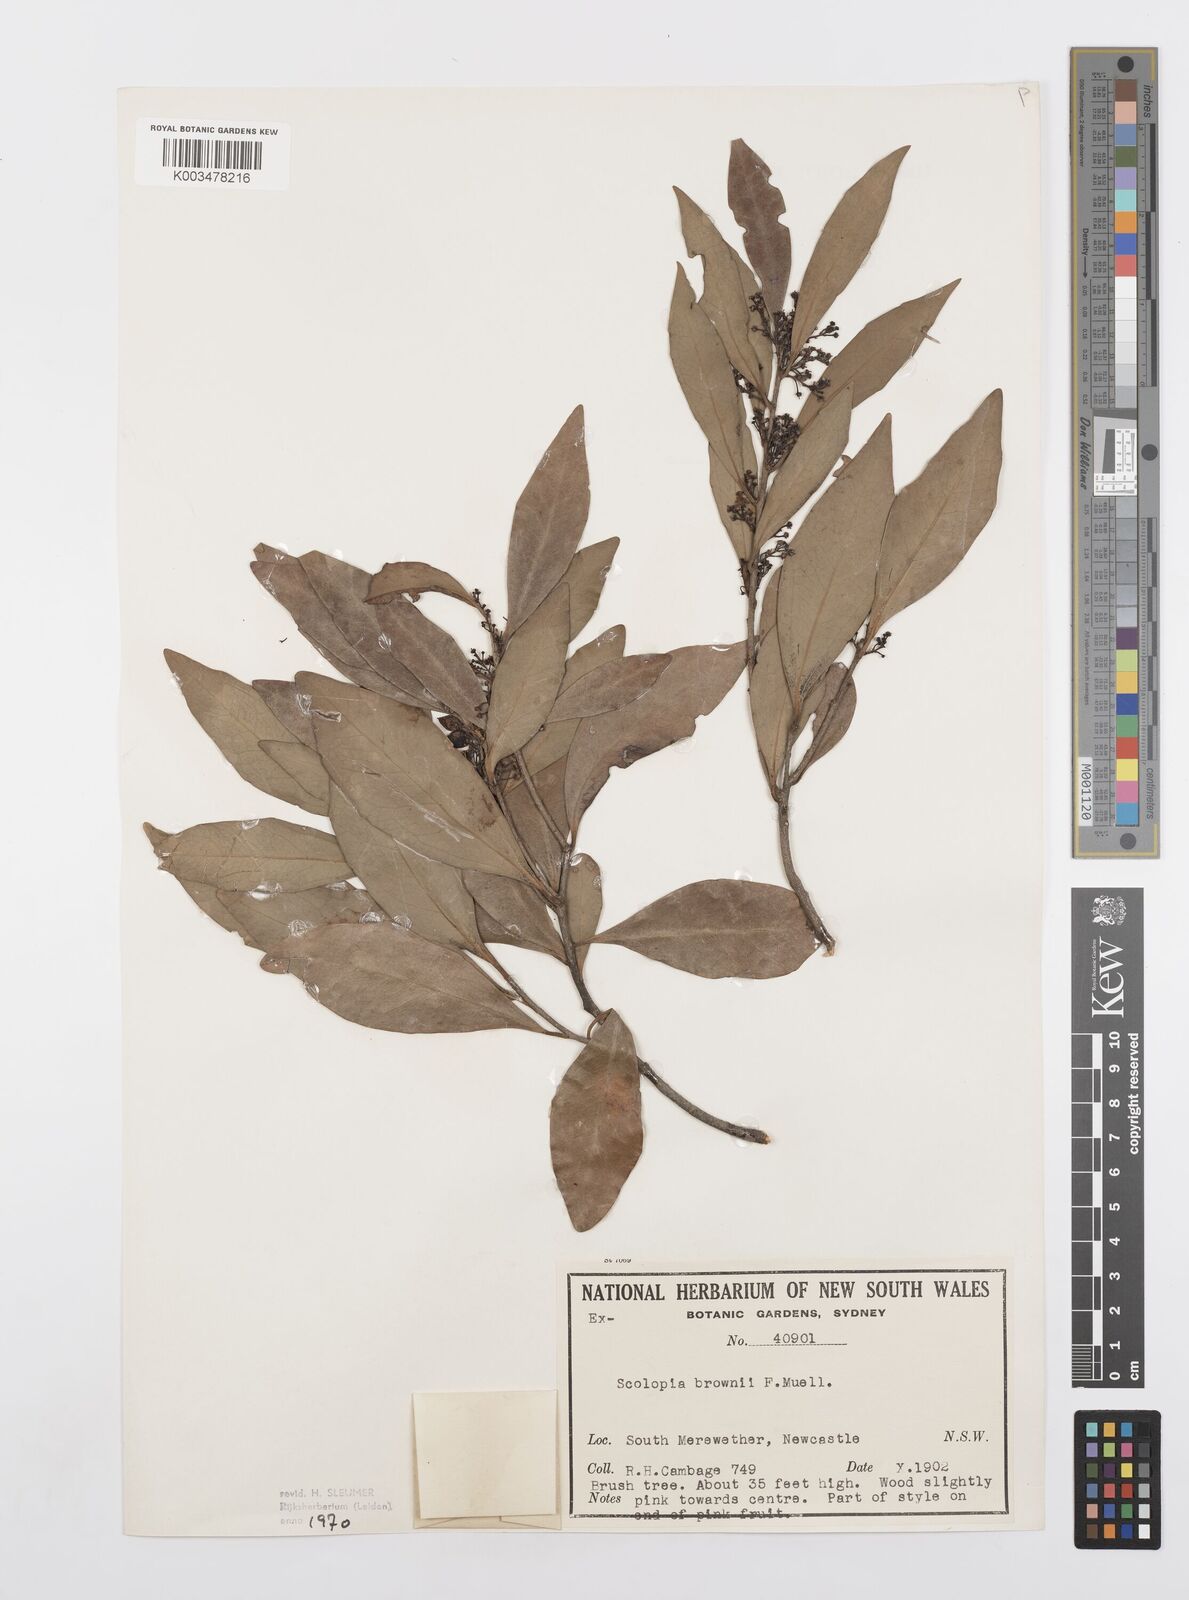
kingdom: Plantae
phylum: Tracheophyta
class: Magnoliopsida
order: Malpighiales
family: Salicaceae
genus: Scolopia
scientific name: Scolopia braunii
